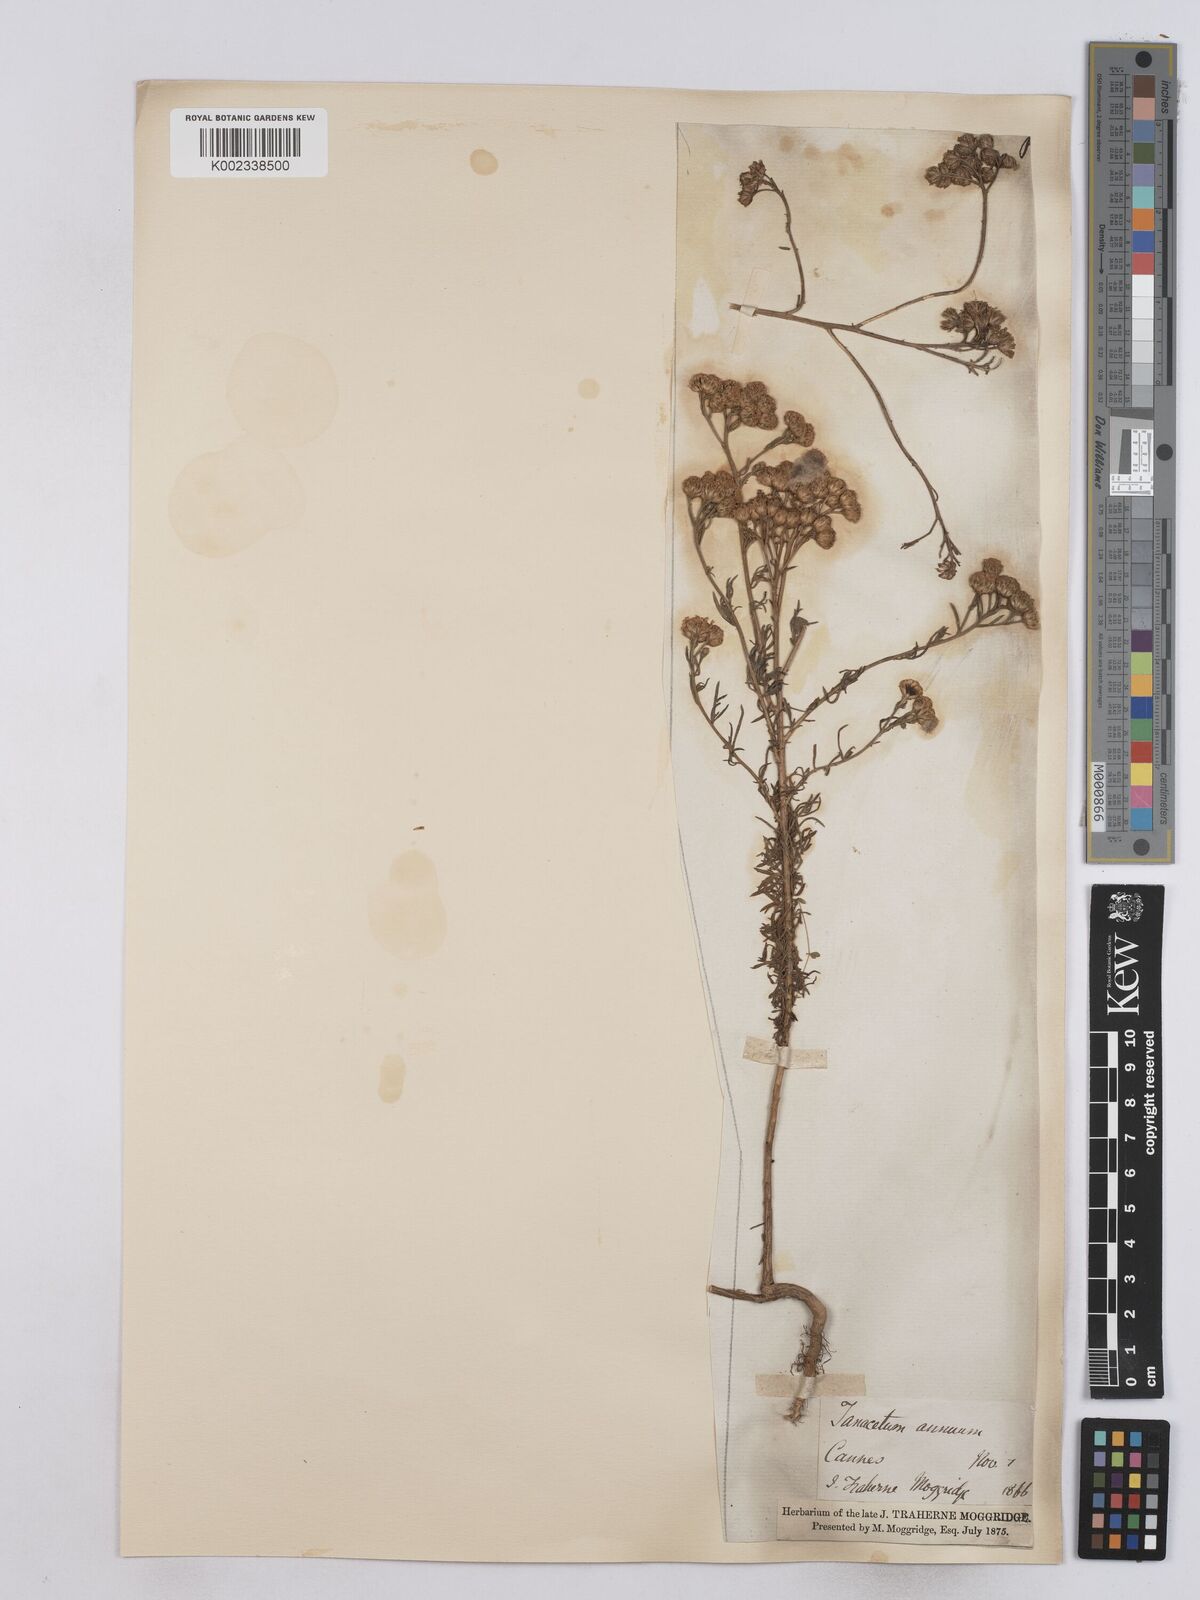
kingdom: Plantae
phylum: Tracheophyta
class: Magnoliopsida
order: Asterales
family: Asteraceae
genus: Vogtia
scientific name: Vogtia annua
